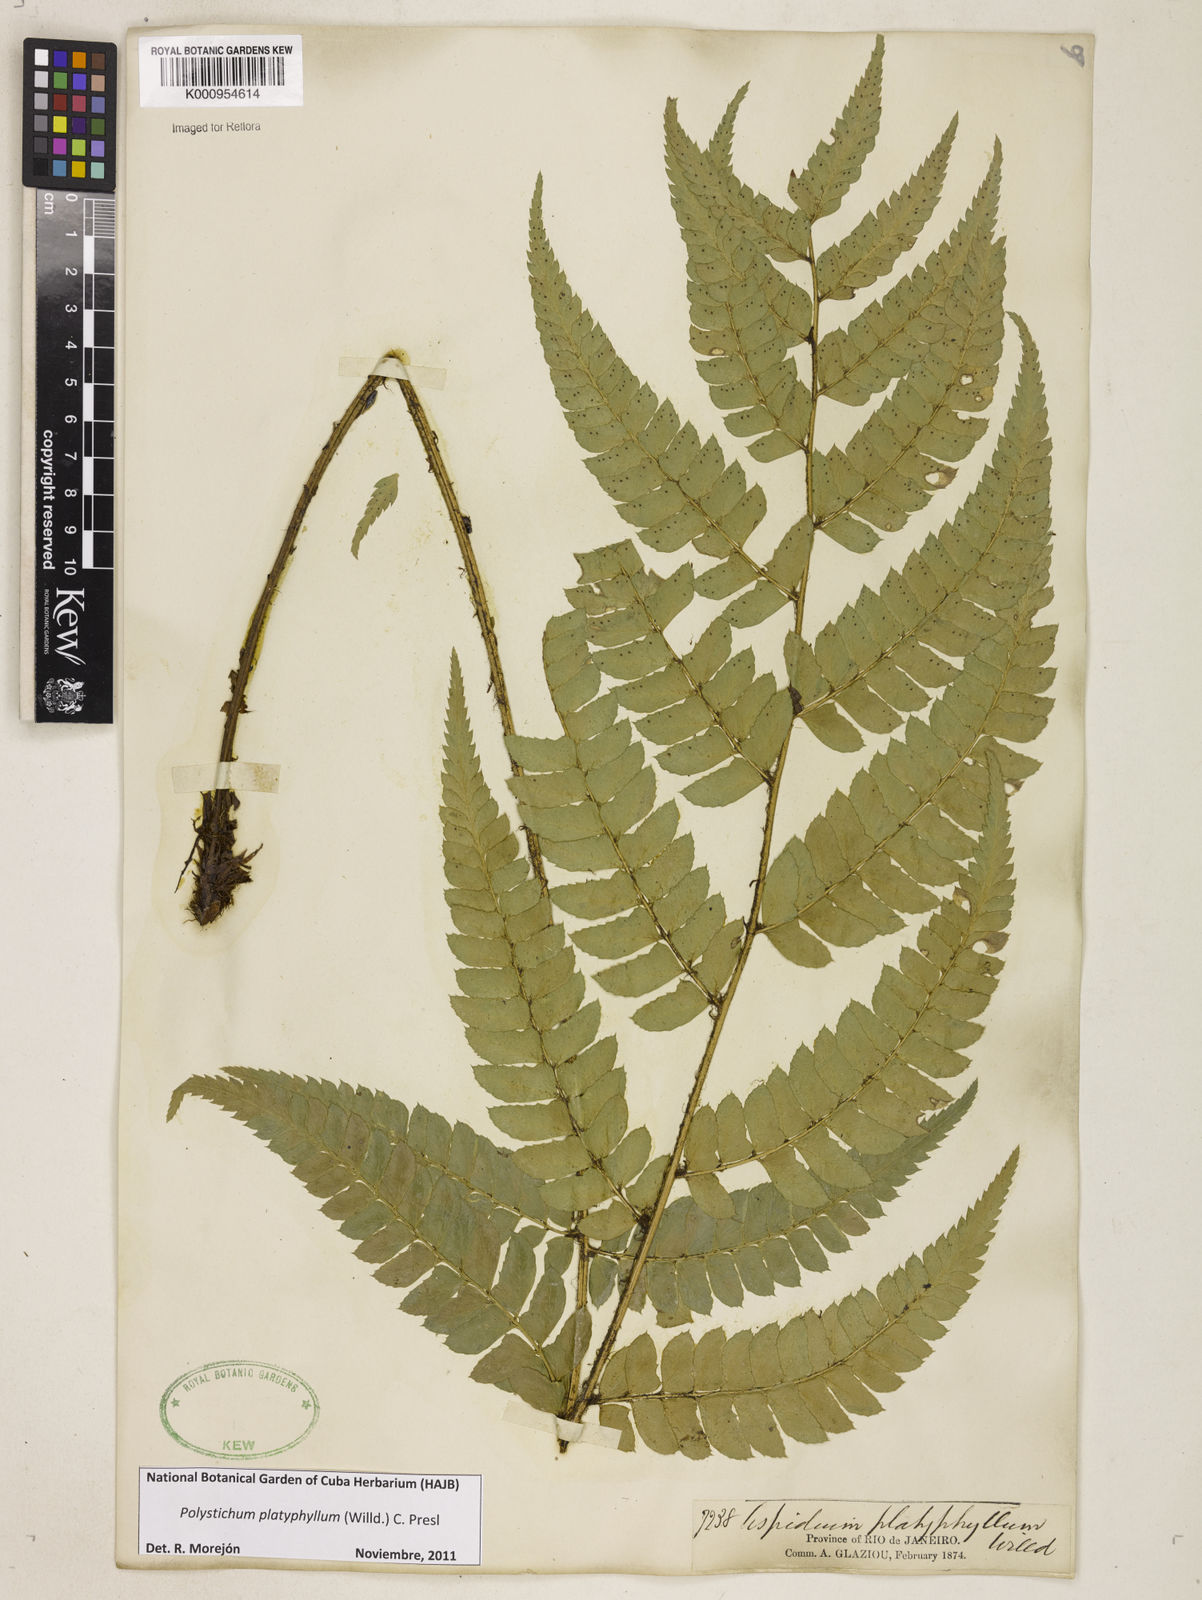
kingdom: Plantae
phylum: Tracheophyta
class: Polypodiopsida
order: Polypodiales
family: Dryopteridaceae
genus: Polystichum
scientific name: Polystichum platyphyllum
